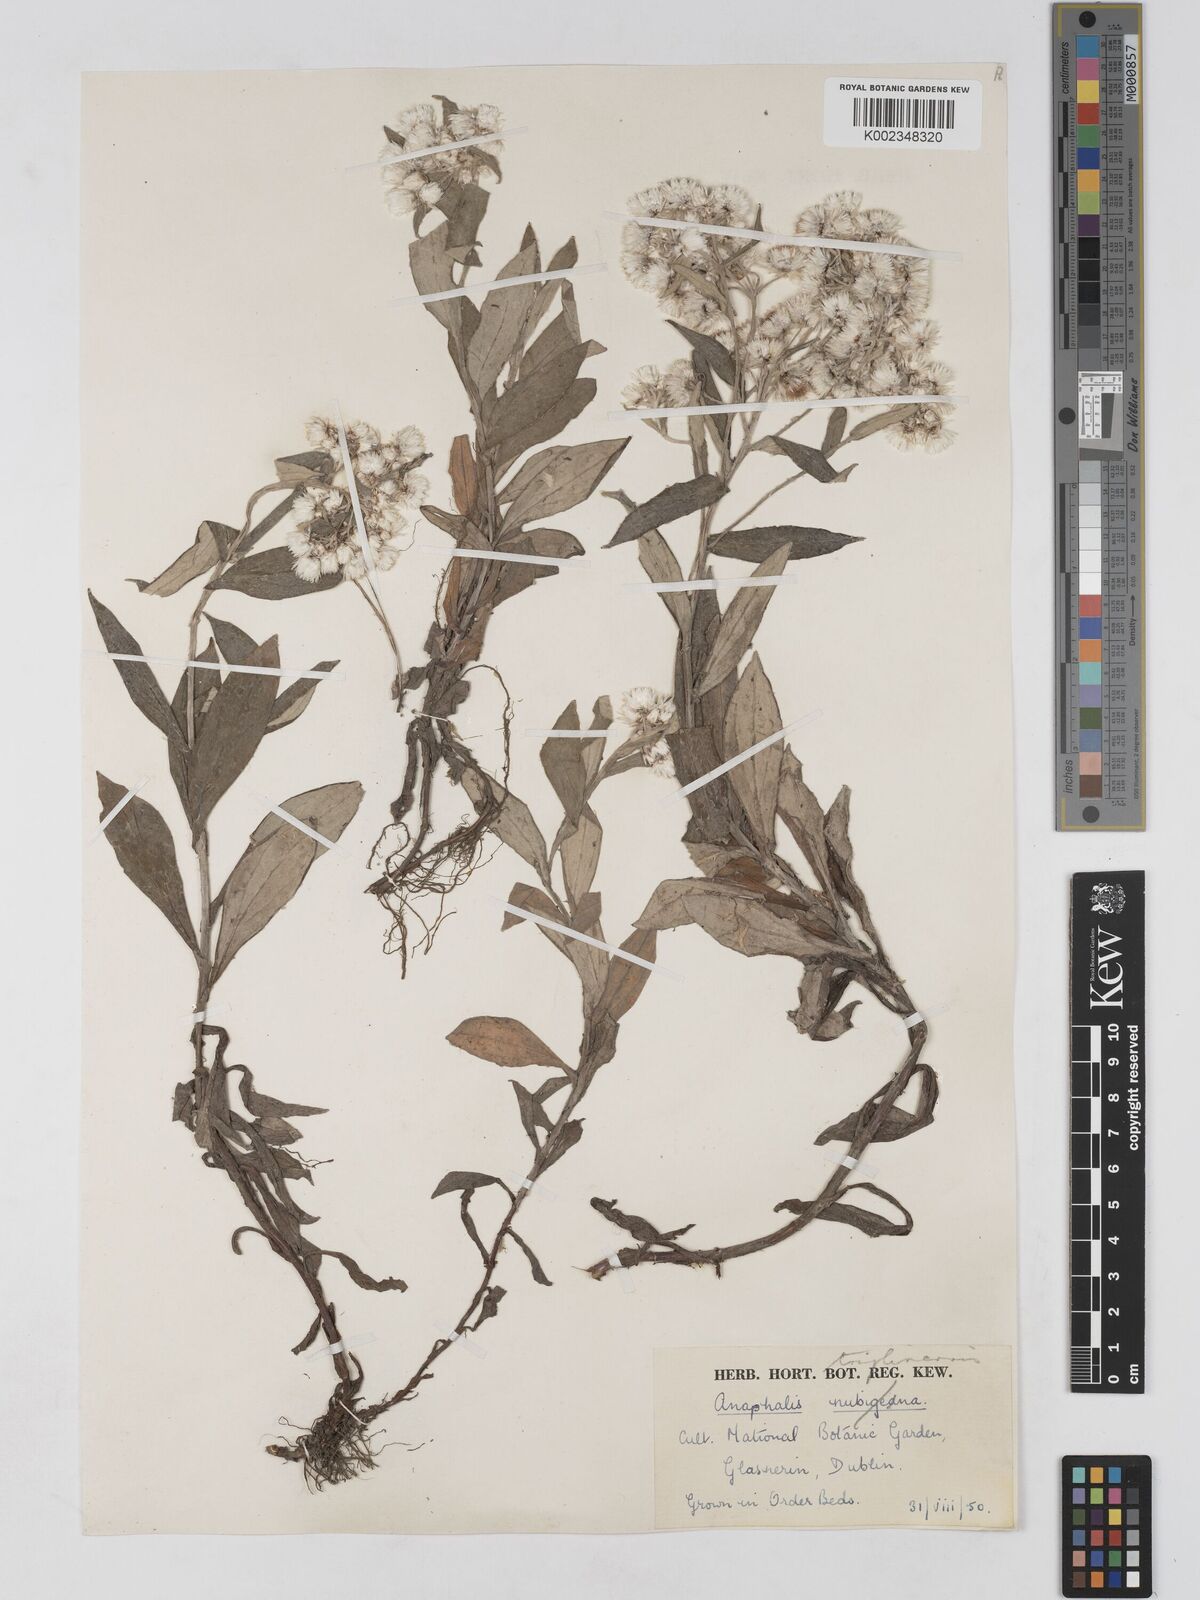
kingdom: Plantae
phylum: Tracheophyta
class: Magnoliopsida
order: Asterales
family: Asteraceae
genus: Anaphalis
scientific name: Anaphalis triplinervis
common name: Pearly everlasting
